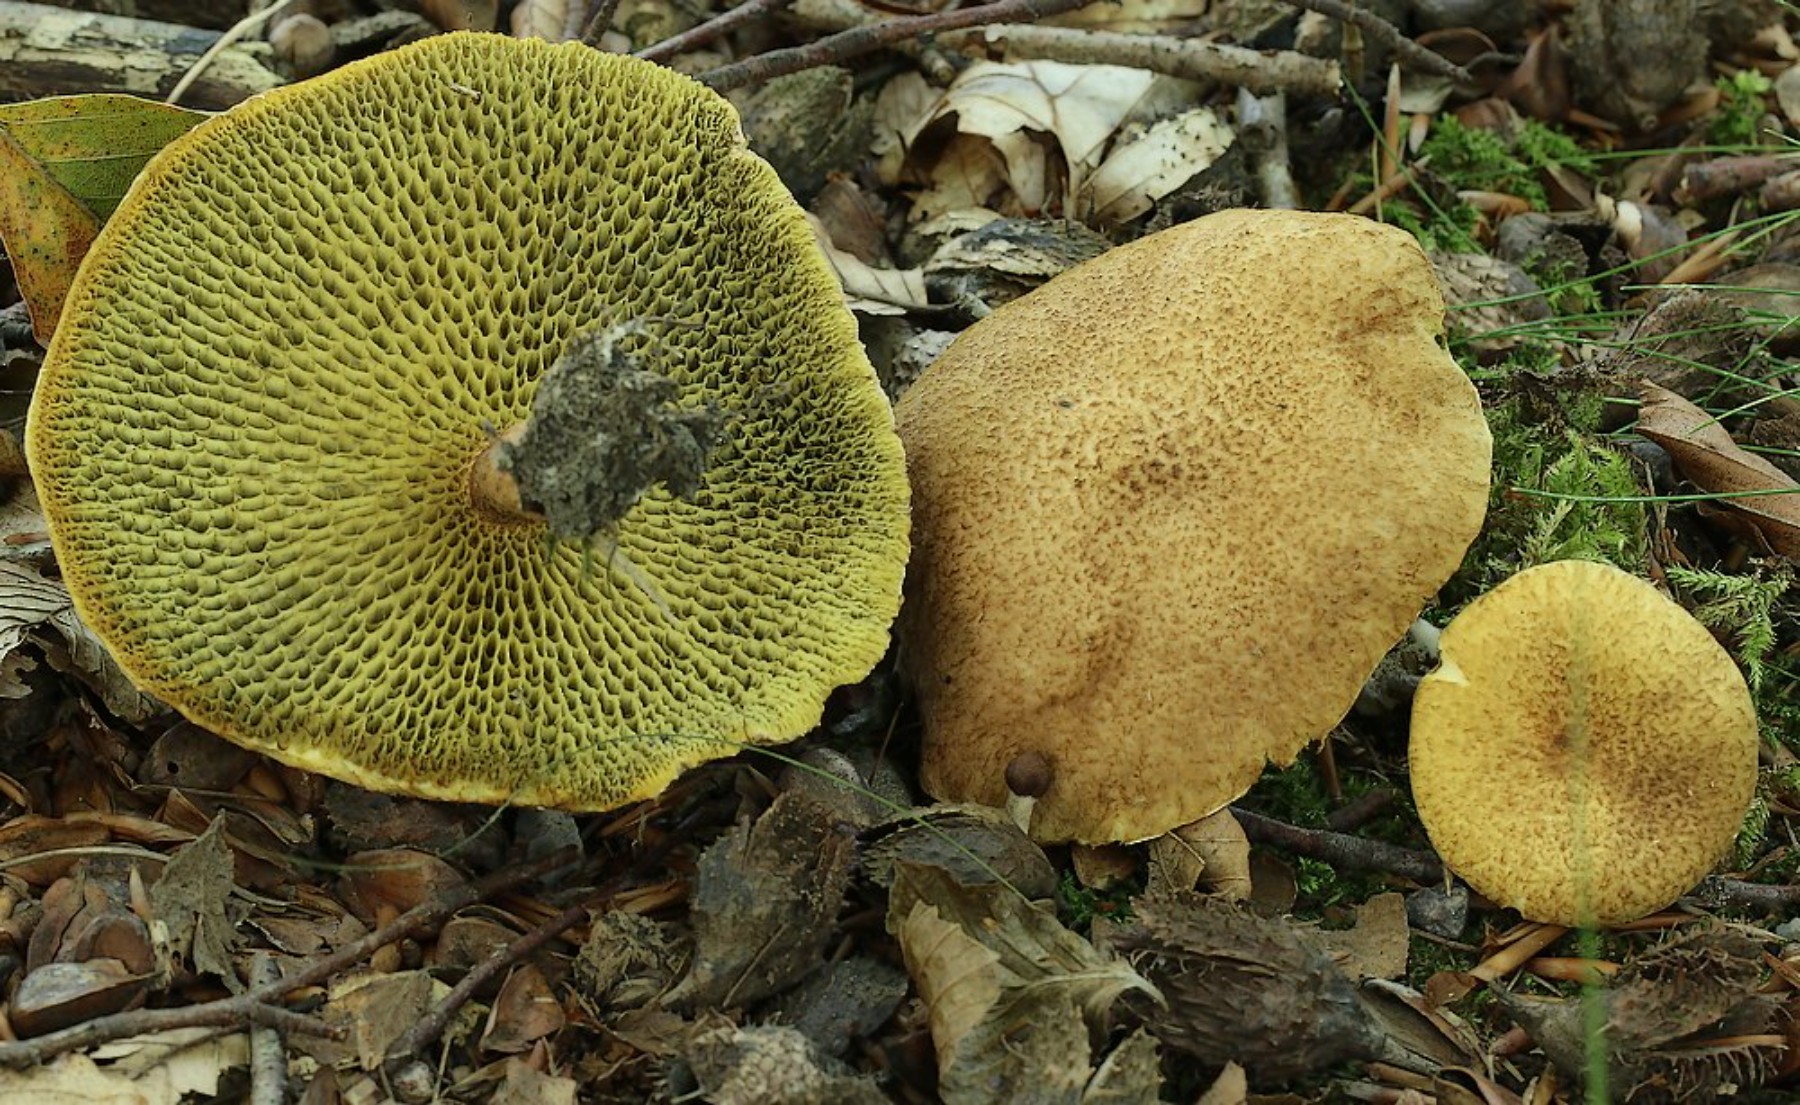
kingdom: Fungi
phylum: Basidiomycota
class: Agaricomycetes
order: Boletales
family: Suillaceae
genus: Suillus
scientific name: Suillus cavipes
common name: hulstokket slimrørhat
